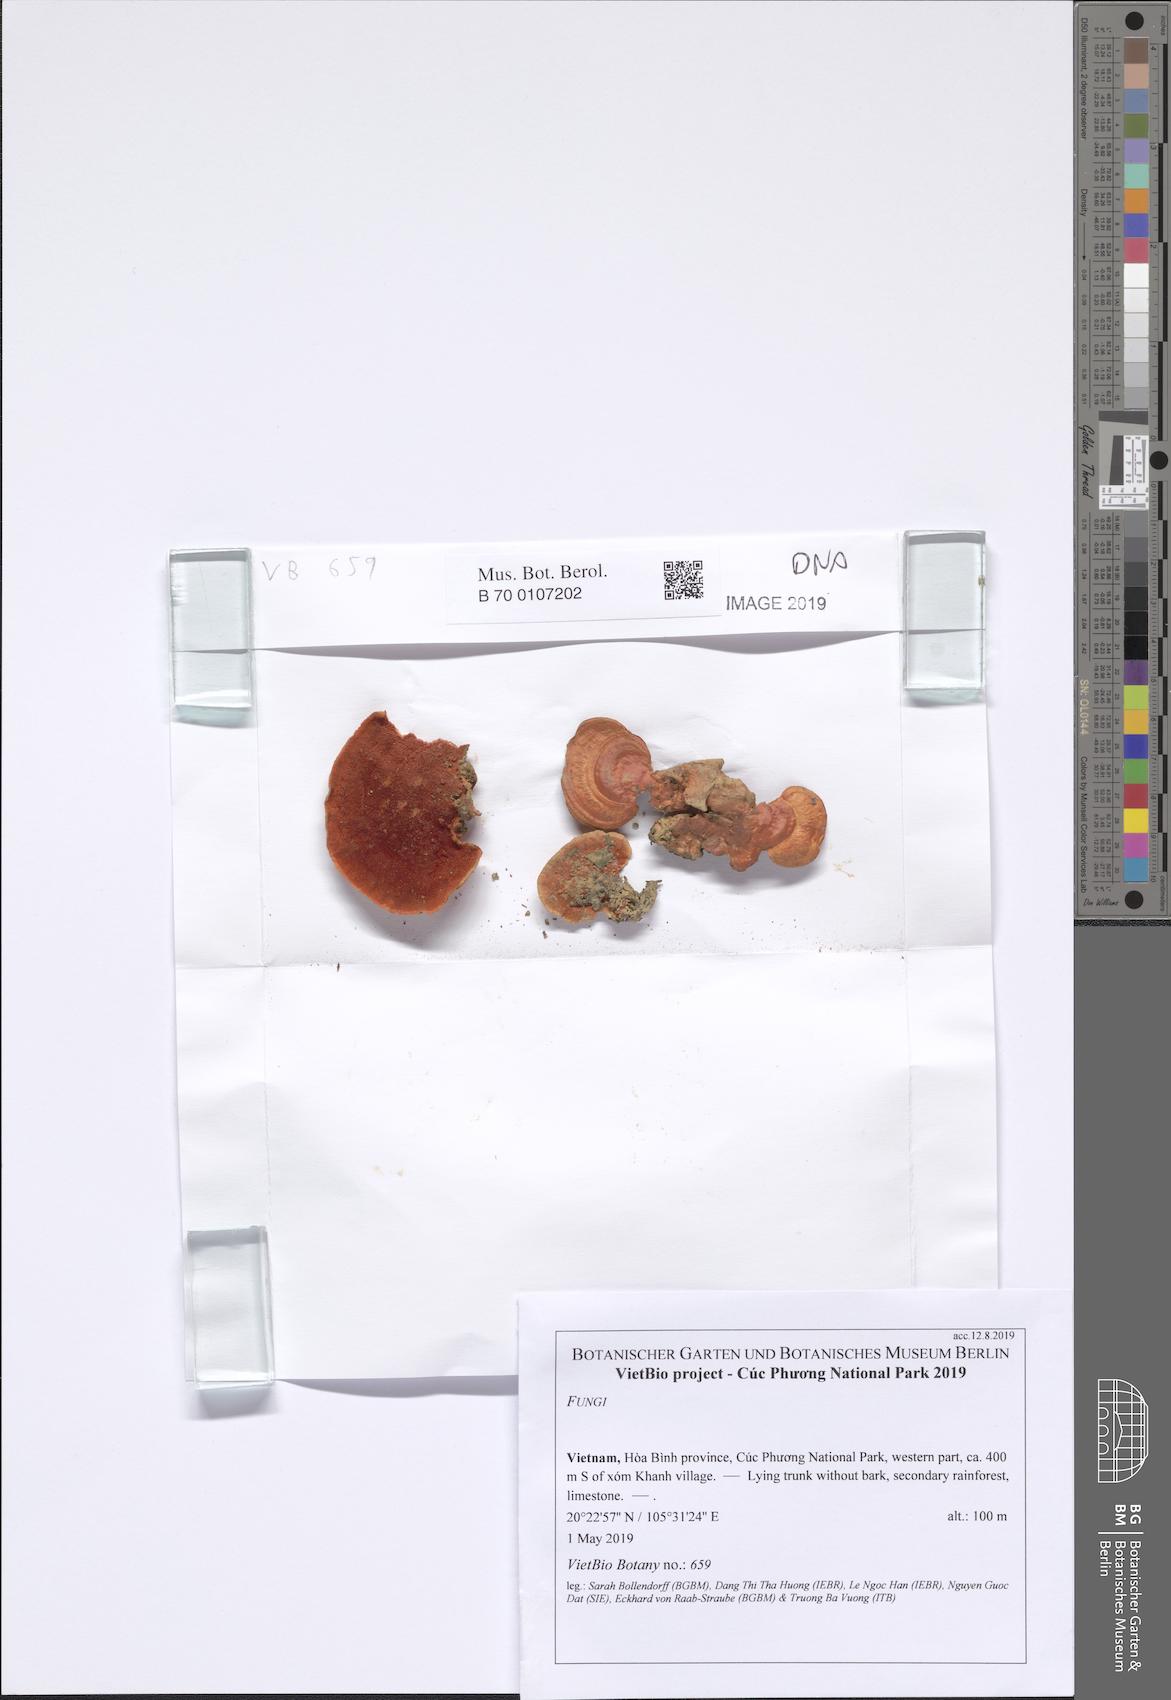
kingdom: Fungi
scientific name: Fungi
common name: Fungi
